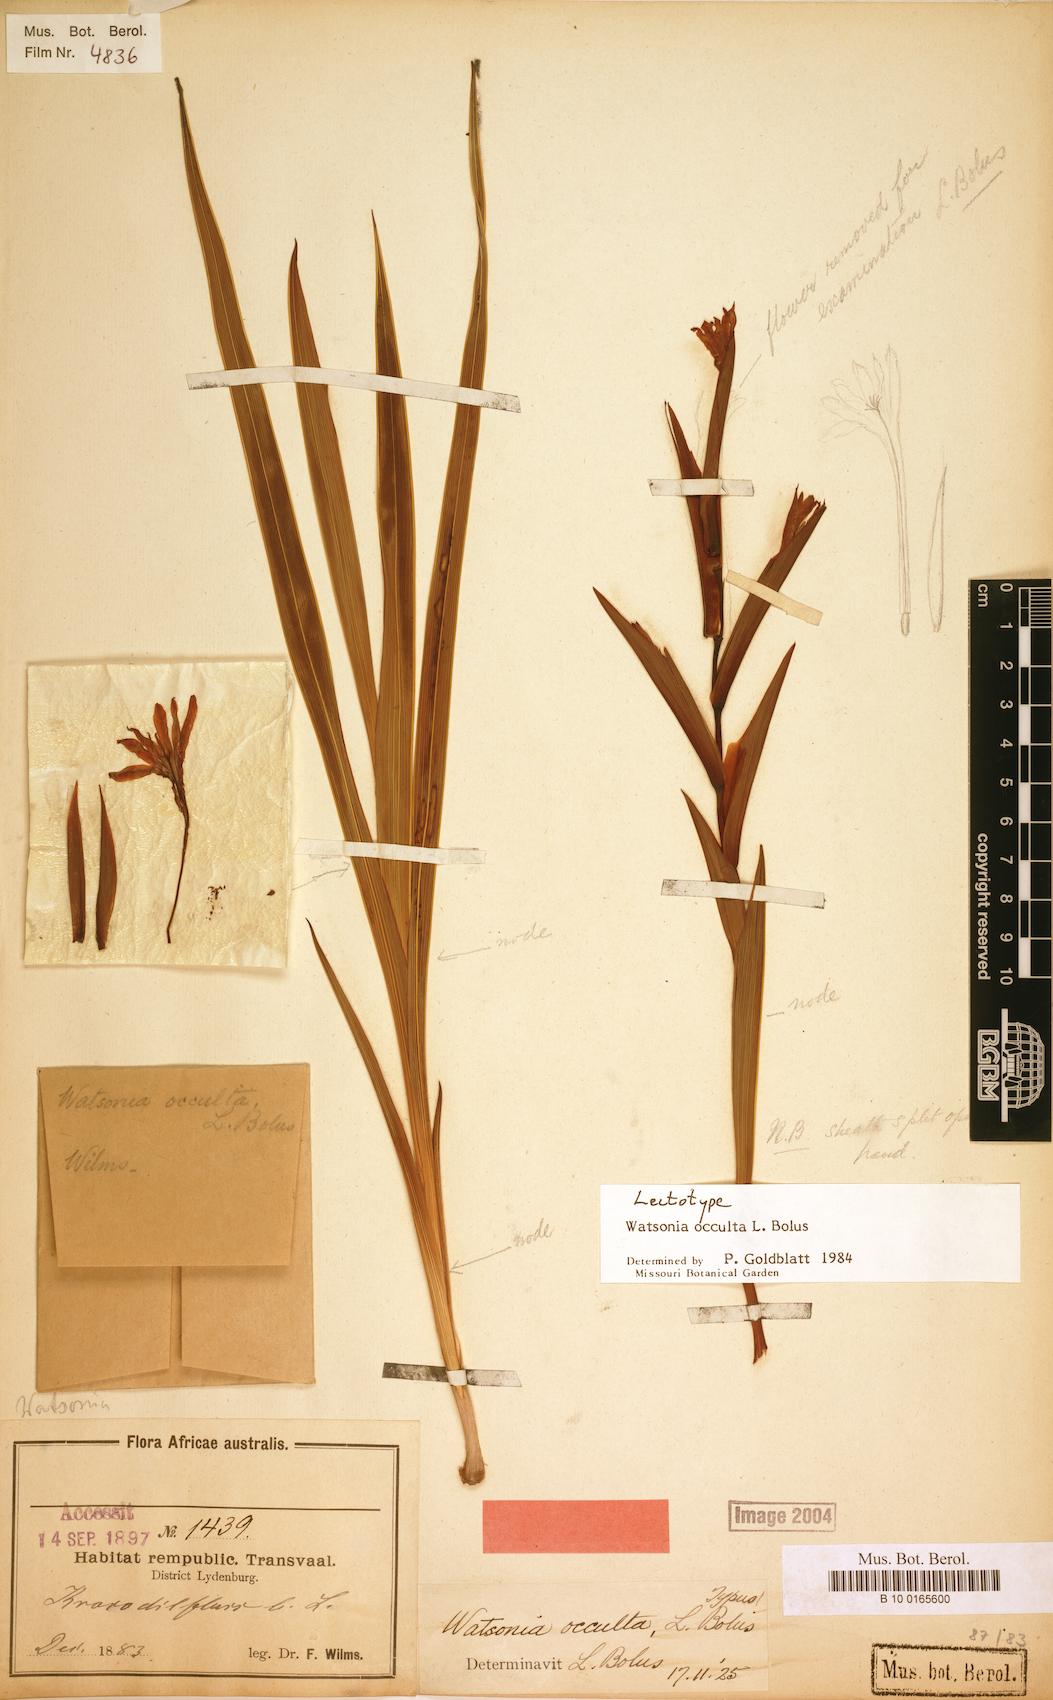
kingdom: Plantae
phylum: Tracheophyta
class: Liliopsida
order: Asparagales
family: Iridaceae
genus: Watsonia
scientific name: Watsonia occulta
